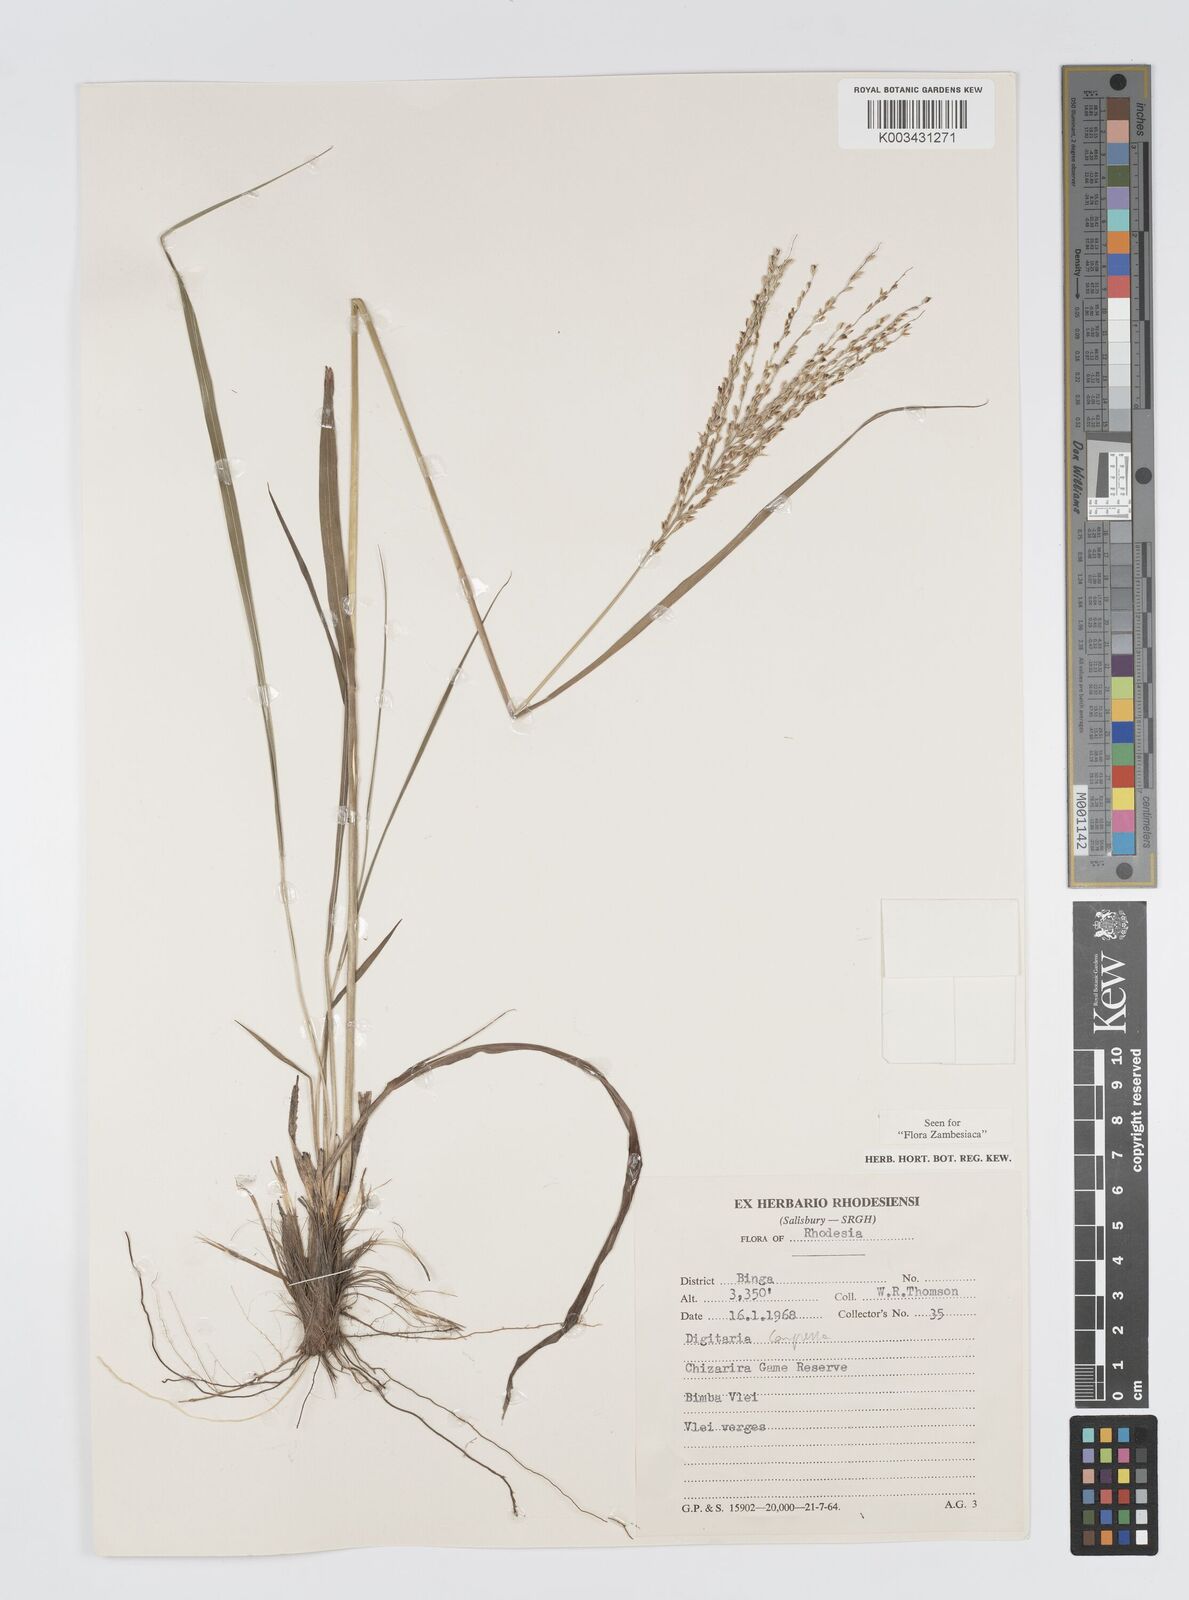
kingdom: Plantae
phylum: Tracheophyta
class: Liliopsida
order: Poales
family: Poaceae
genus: Digitaria
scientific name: Digitaria compressa
